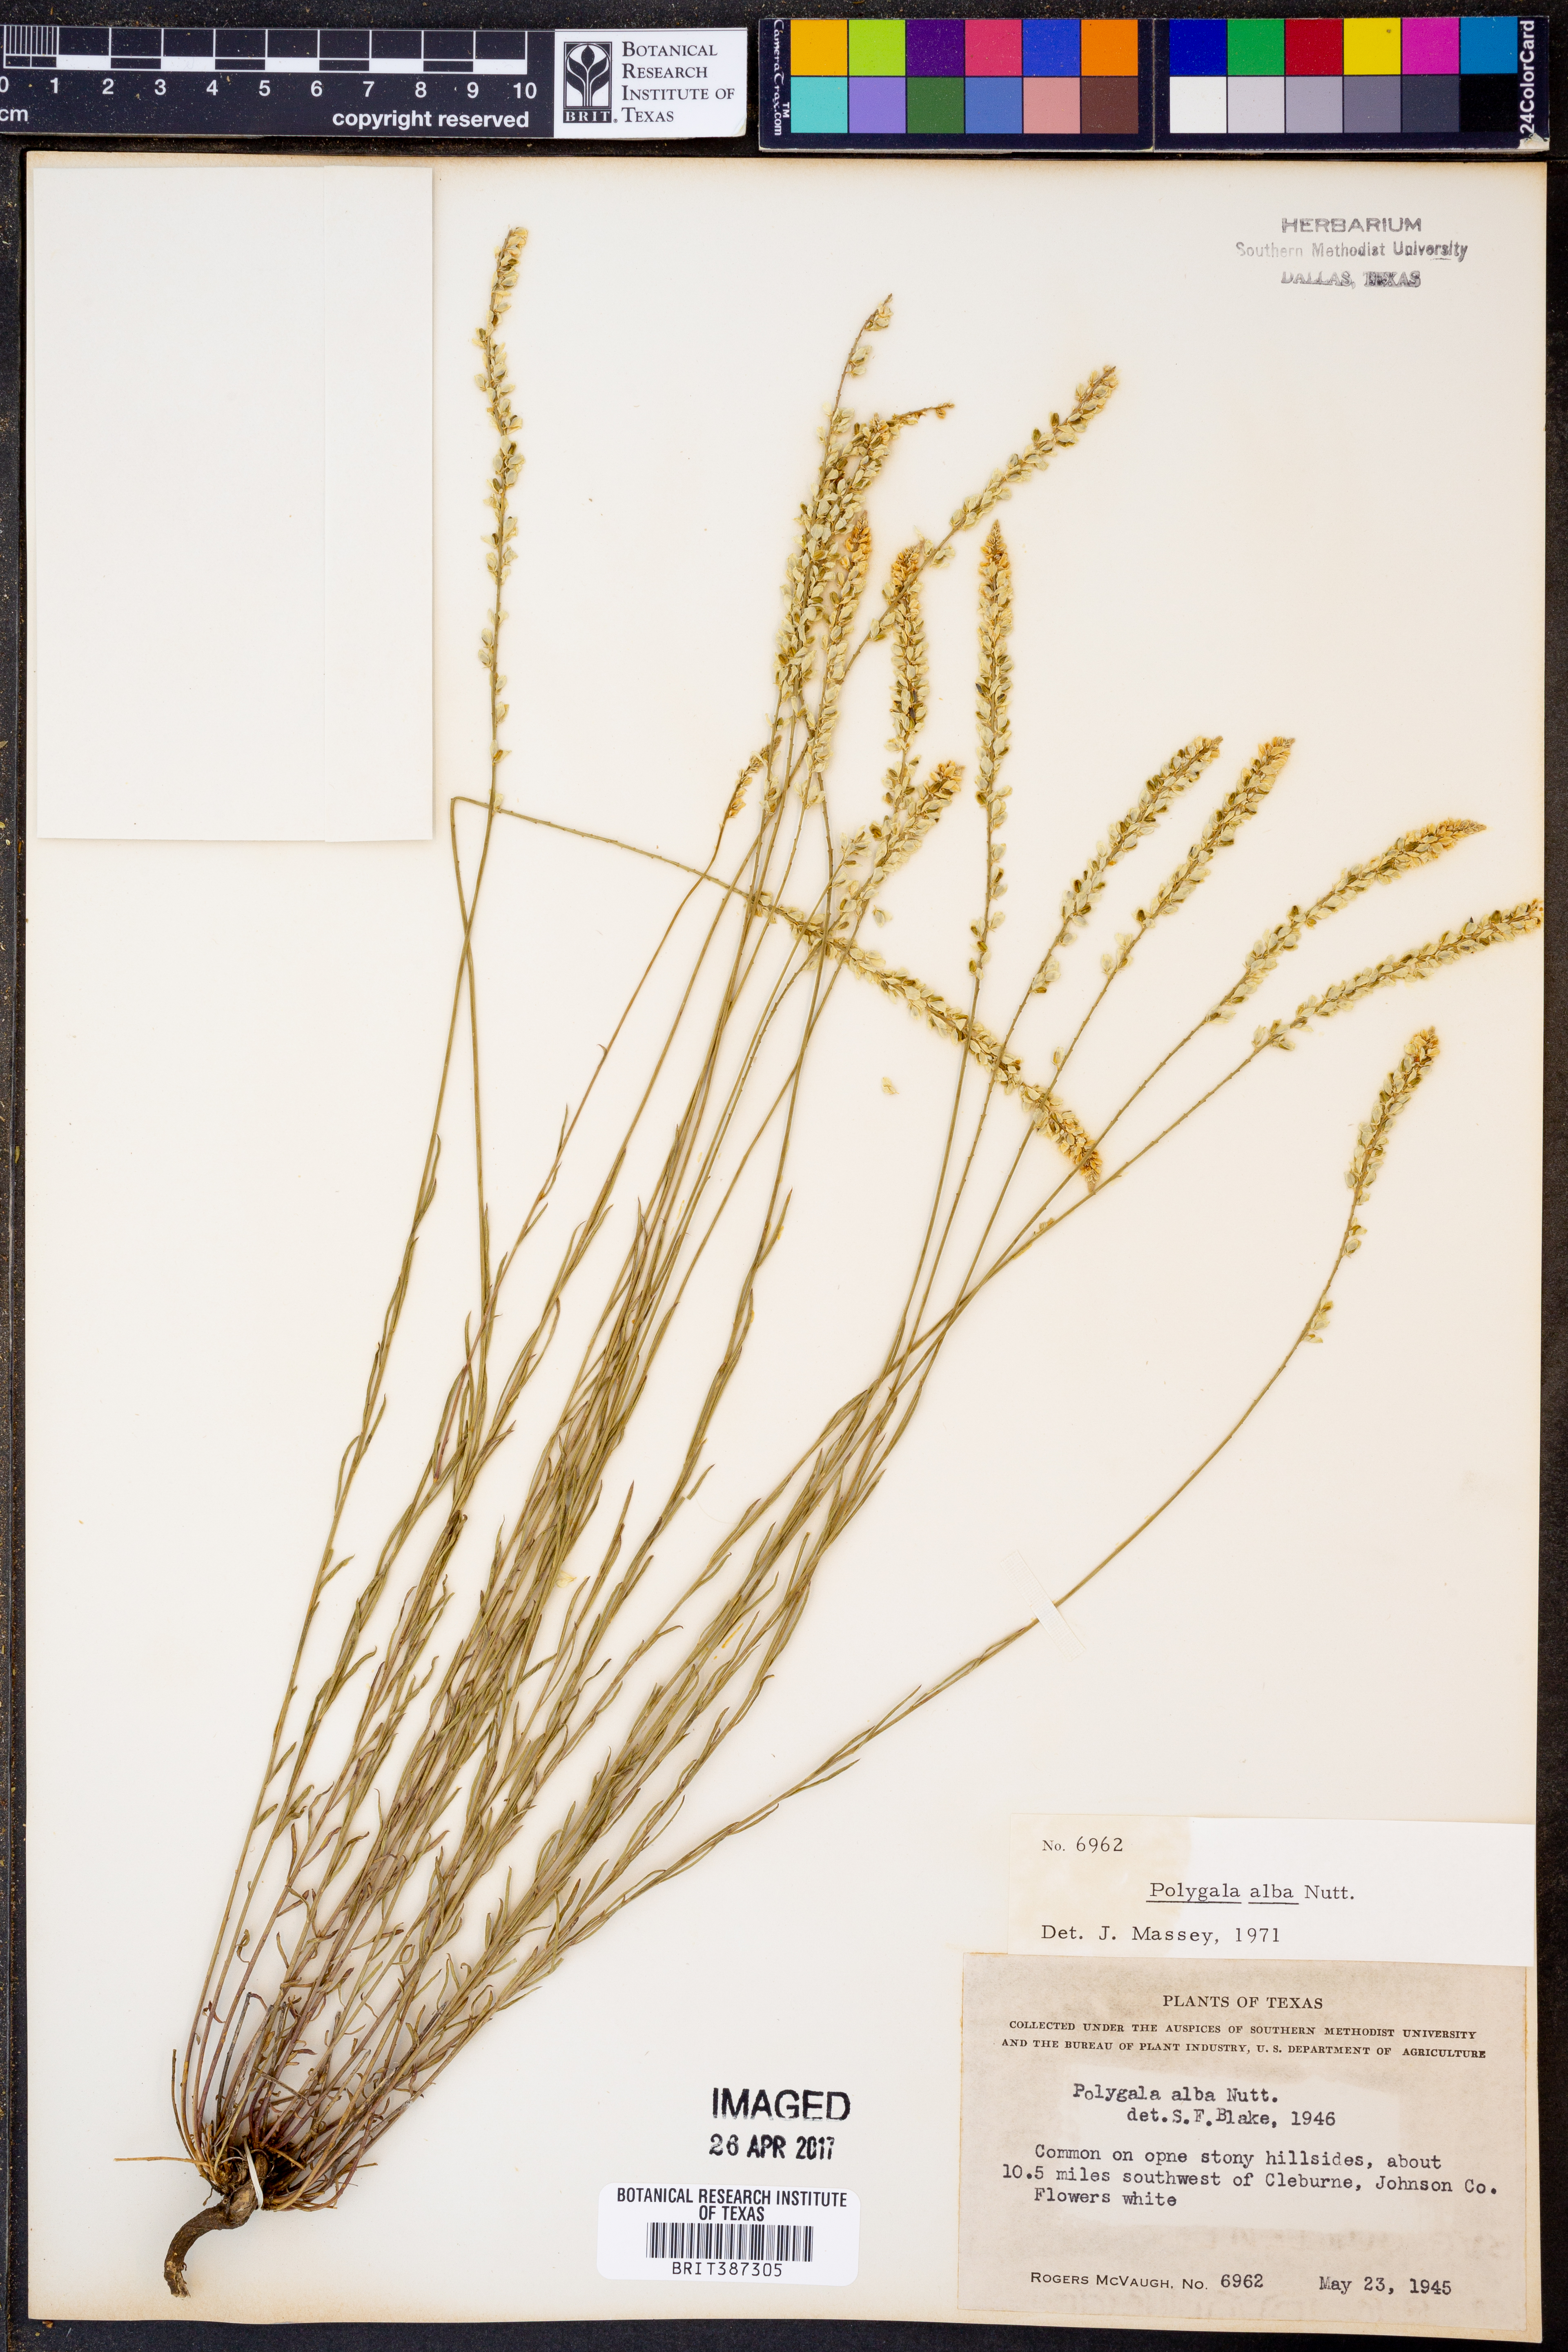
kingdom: Plantae
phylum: Tracheophyta
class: Magnoliopsida
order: Fabales
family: Polygalaceae
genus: Polygala
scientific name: Polygala alba
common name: White milkwort
